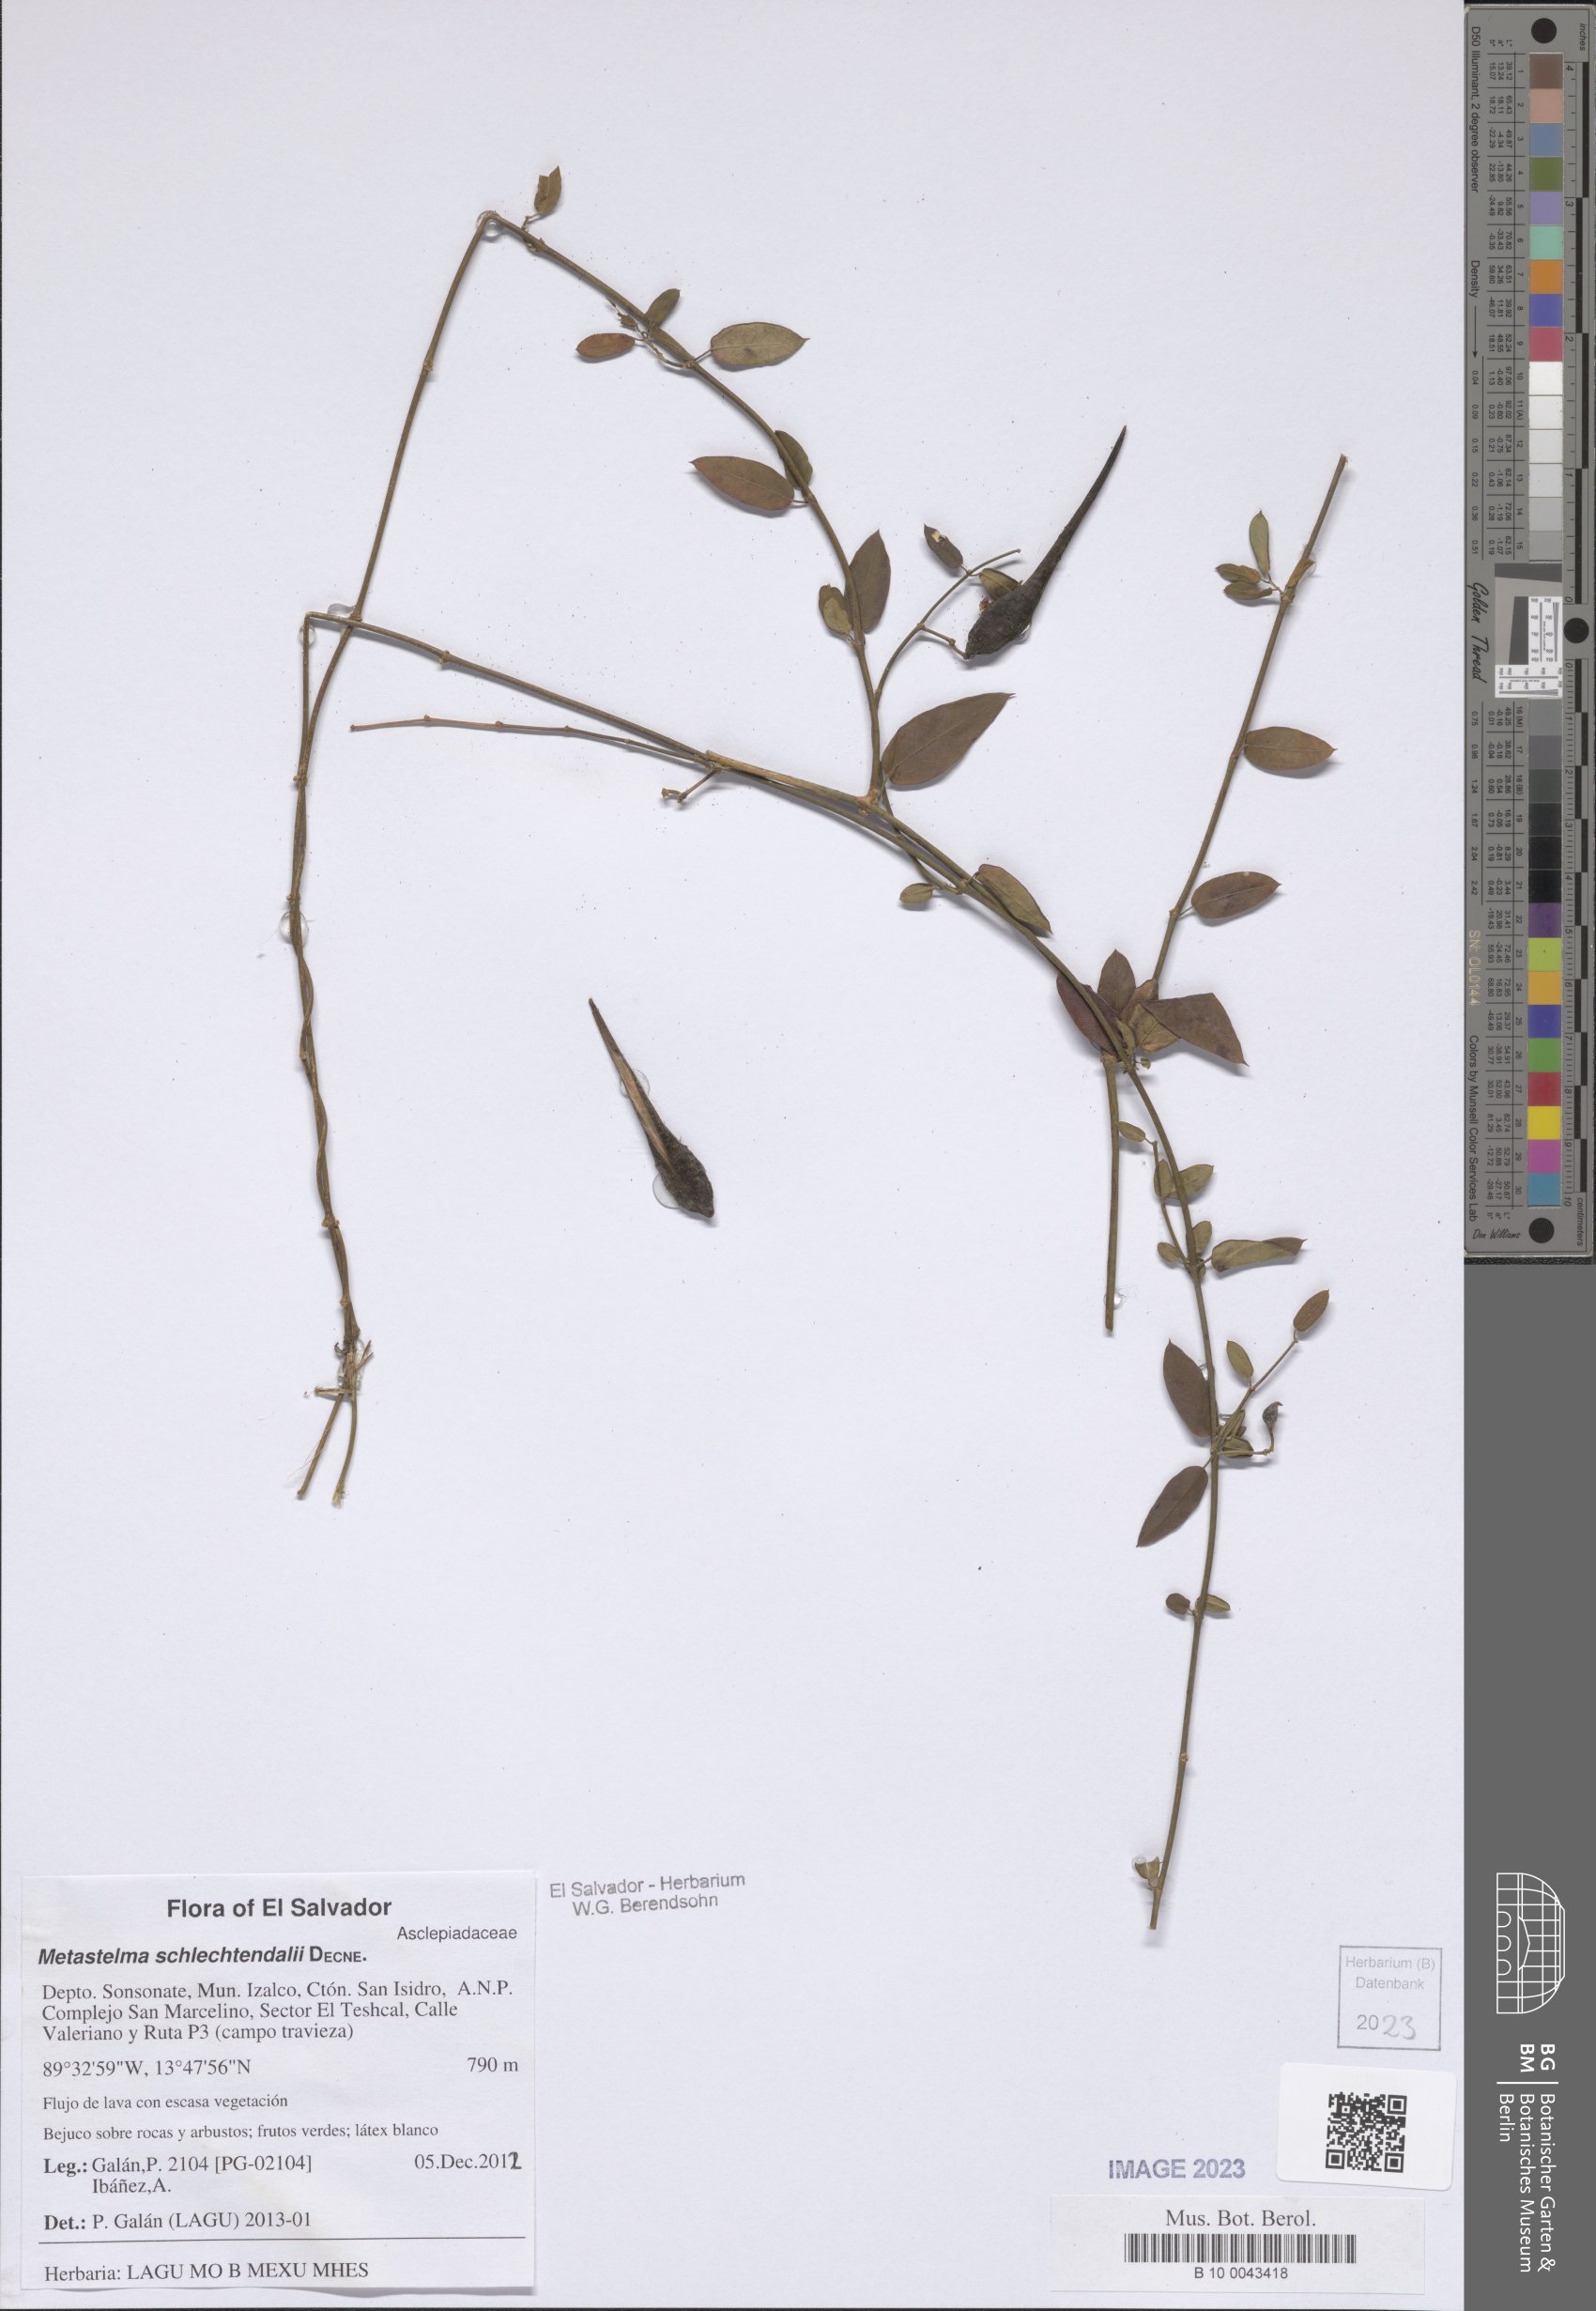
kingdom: Plantae
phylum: Tracheophyta
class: Magnoliopsida
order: Gentianales
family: Apocynaceae
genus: Metastelma
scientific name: Metastelma schlechtendalii
